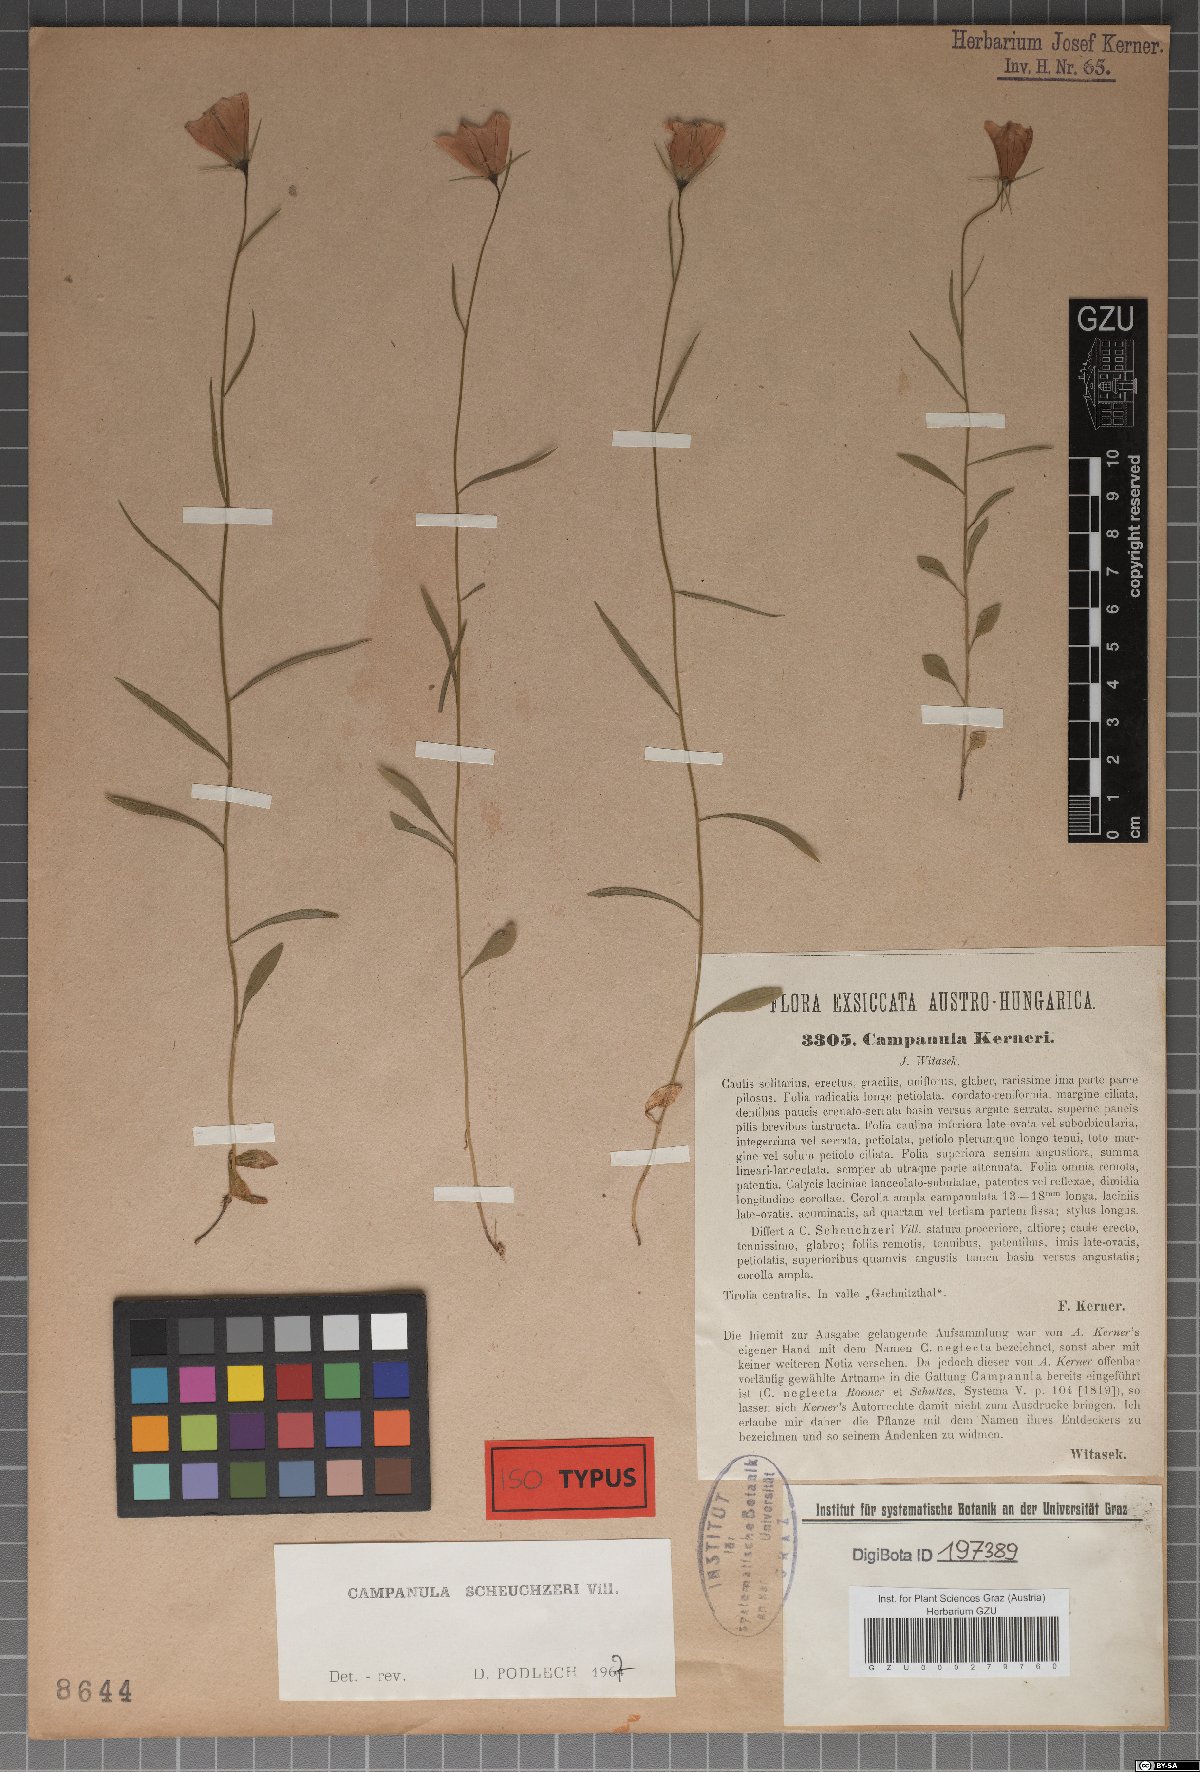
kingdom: Plantae
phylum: Tracheophyta
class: Magnoliopsida
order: Asterales
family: Campanulaceae
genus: Campanula
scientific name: Campanula scheuchzeri
